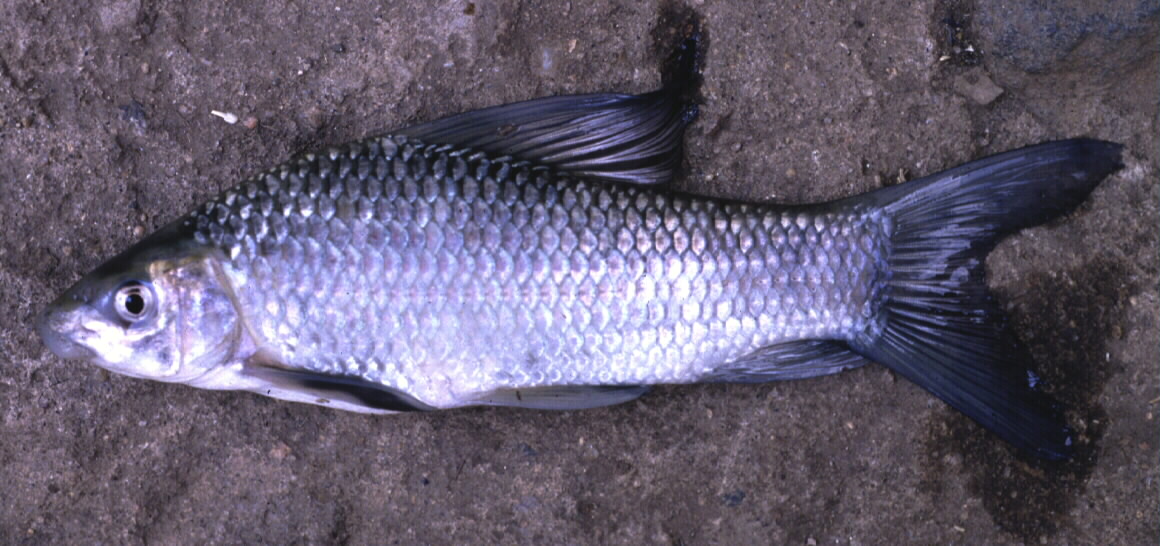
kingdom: Animalia
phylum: Chordata
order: Cypriniformes
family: Cyprinidae
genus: Labeo
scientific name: Labeo congoro
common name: Purple labeo
